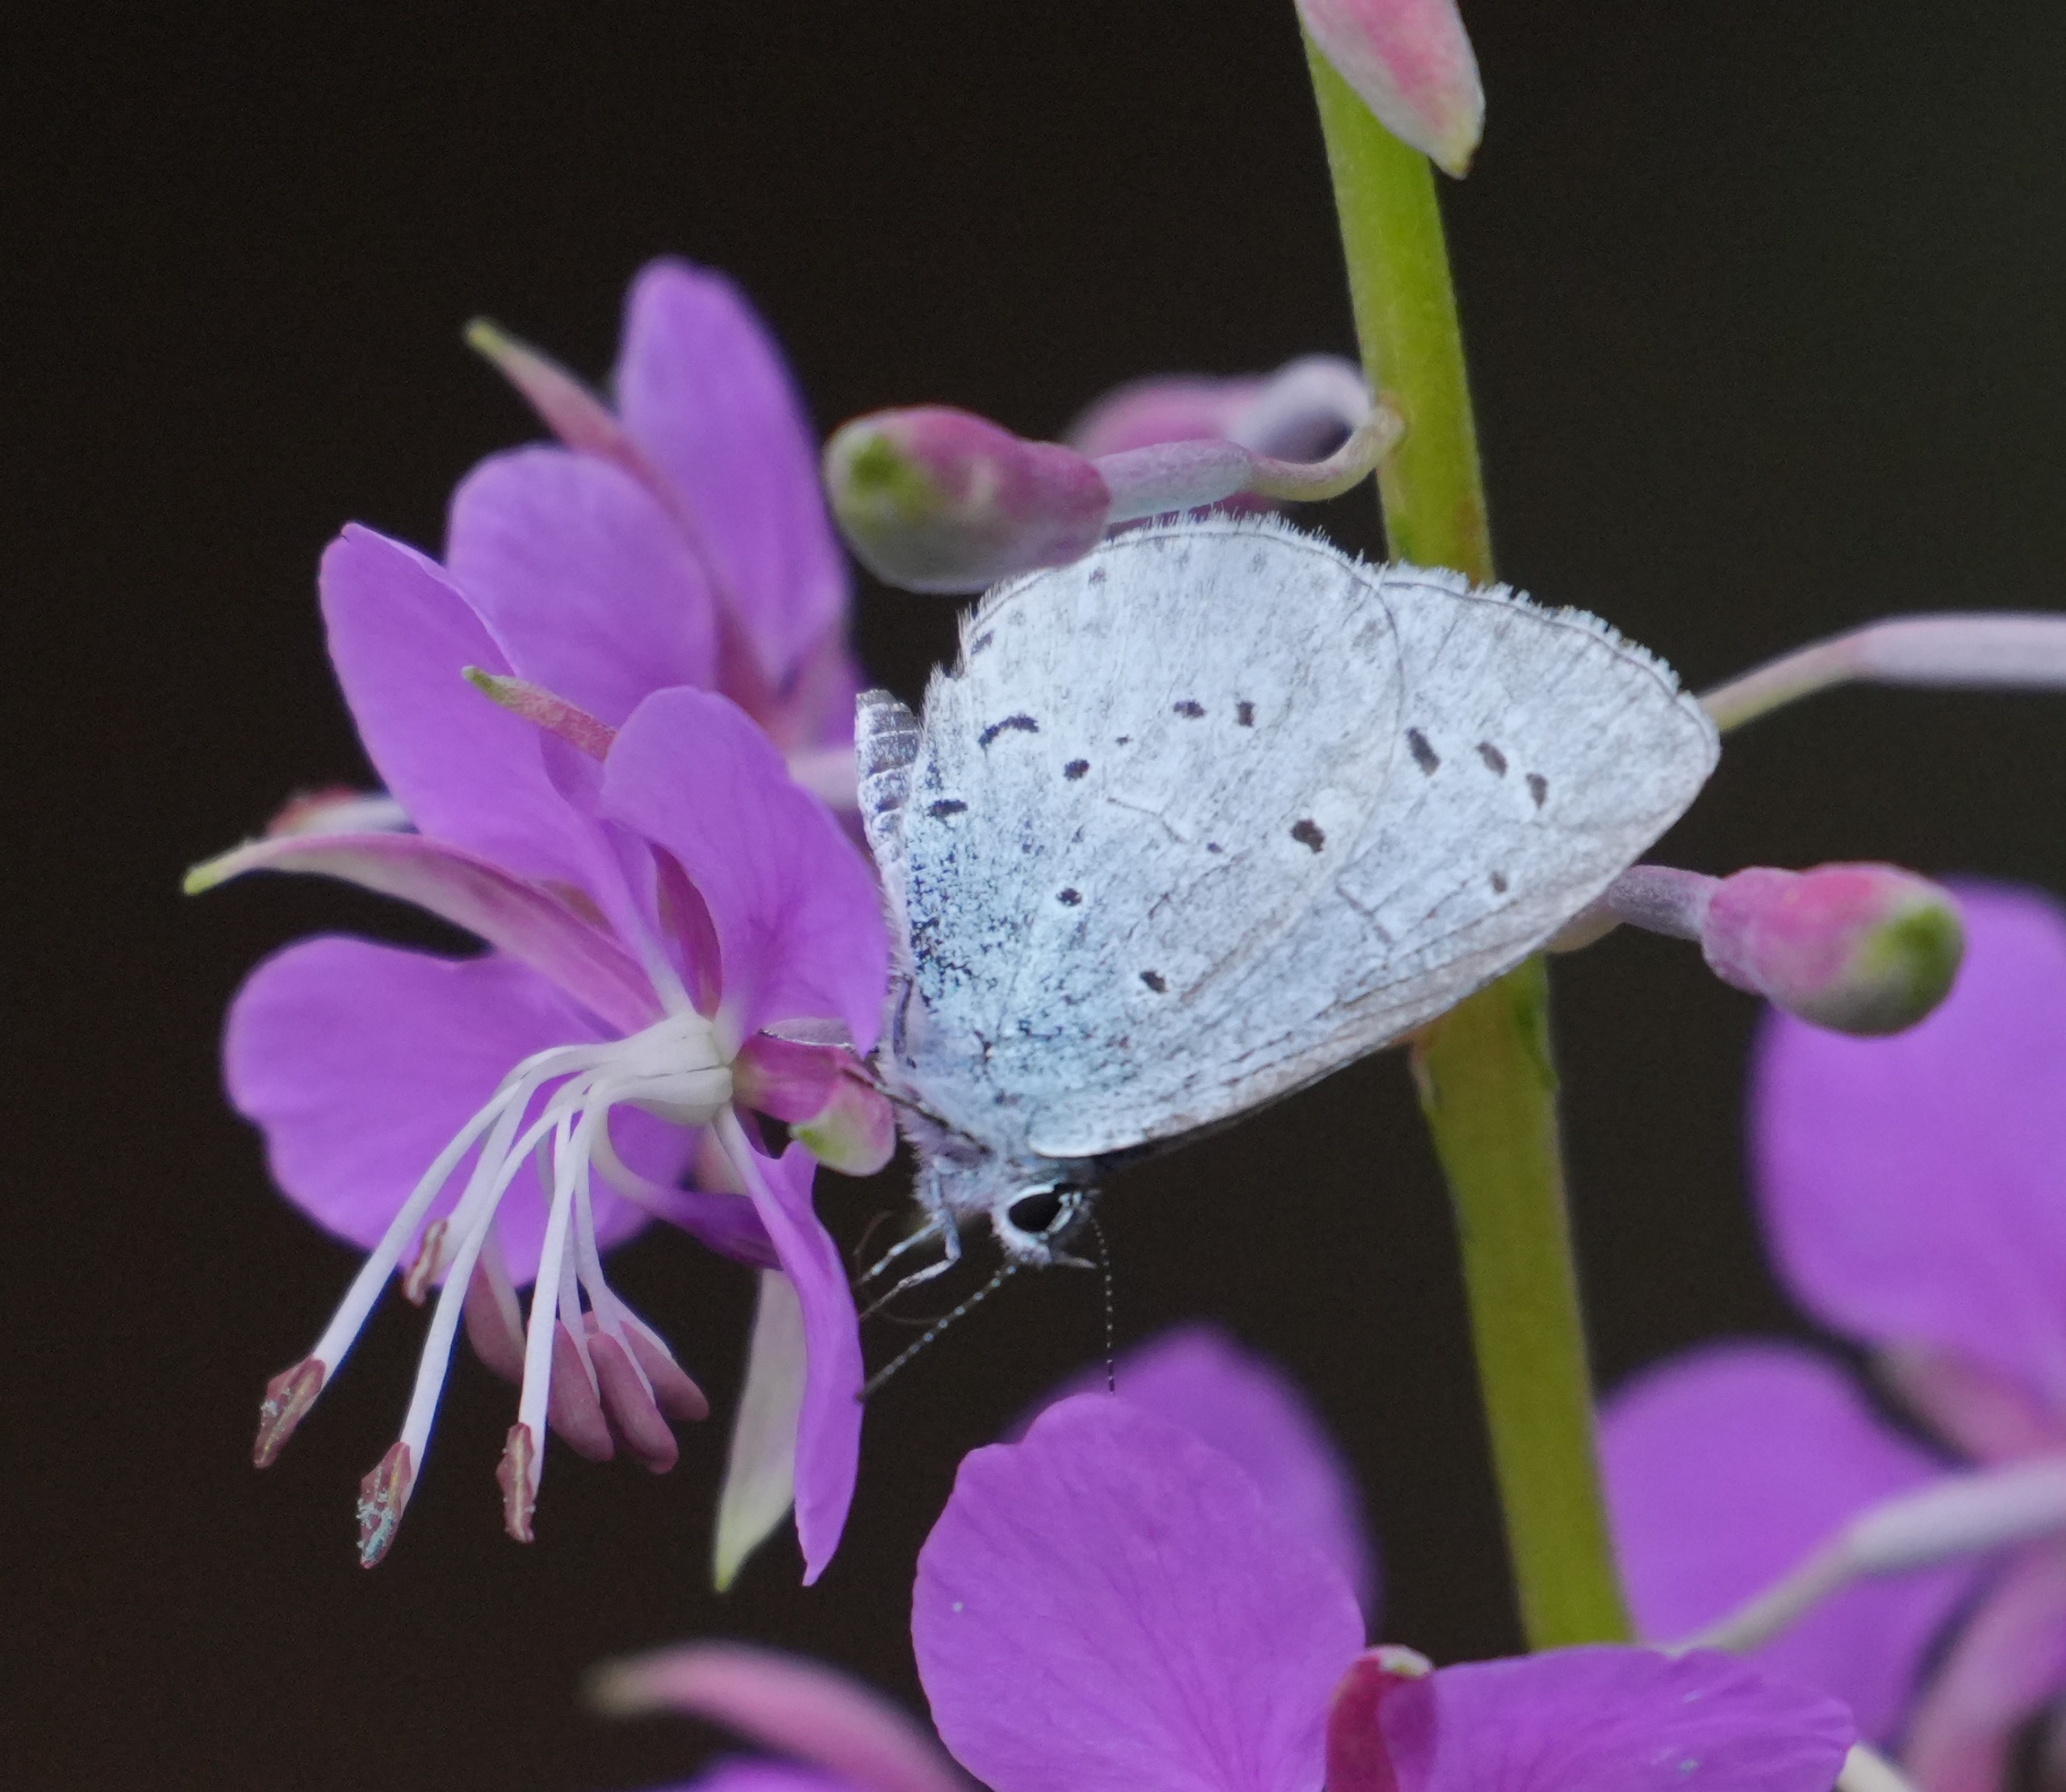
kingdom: Animalia
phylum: Arthropoda
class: Insecta
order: Lepidoptera
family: Lycaenidae
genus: Celastrina
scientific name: Celastrina argiolus
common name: Skovblåfugl
